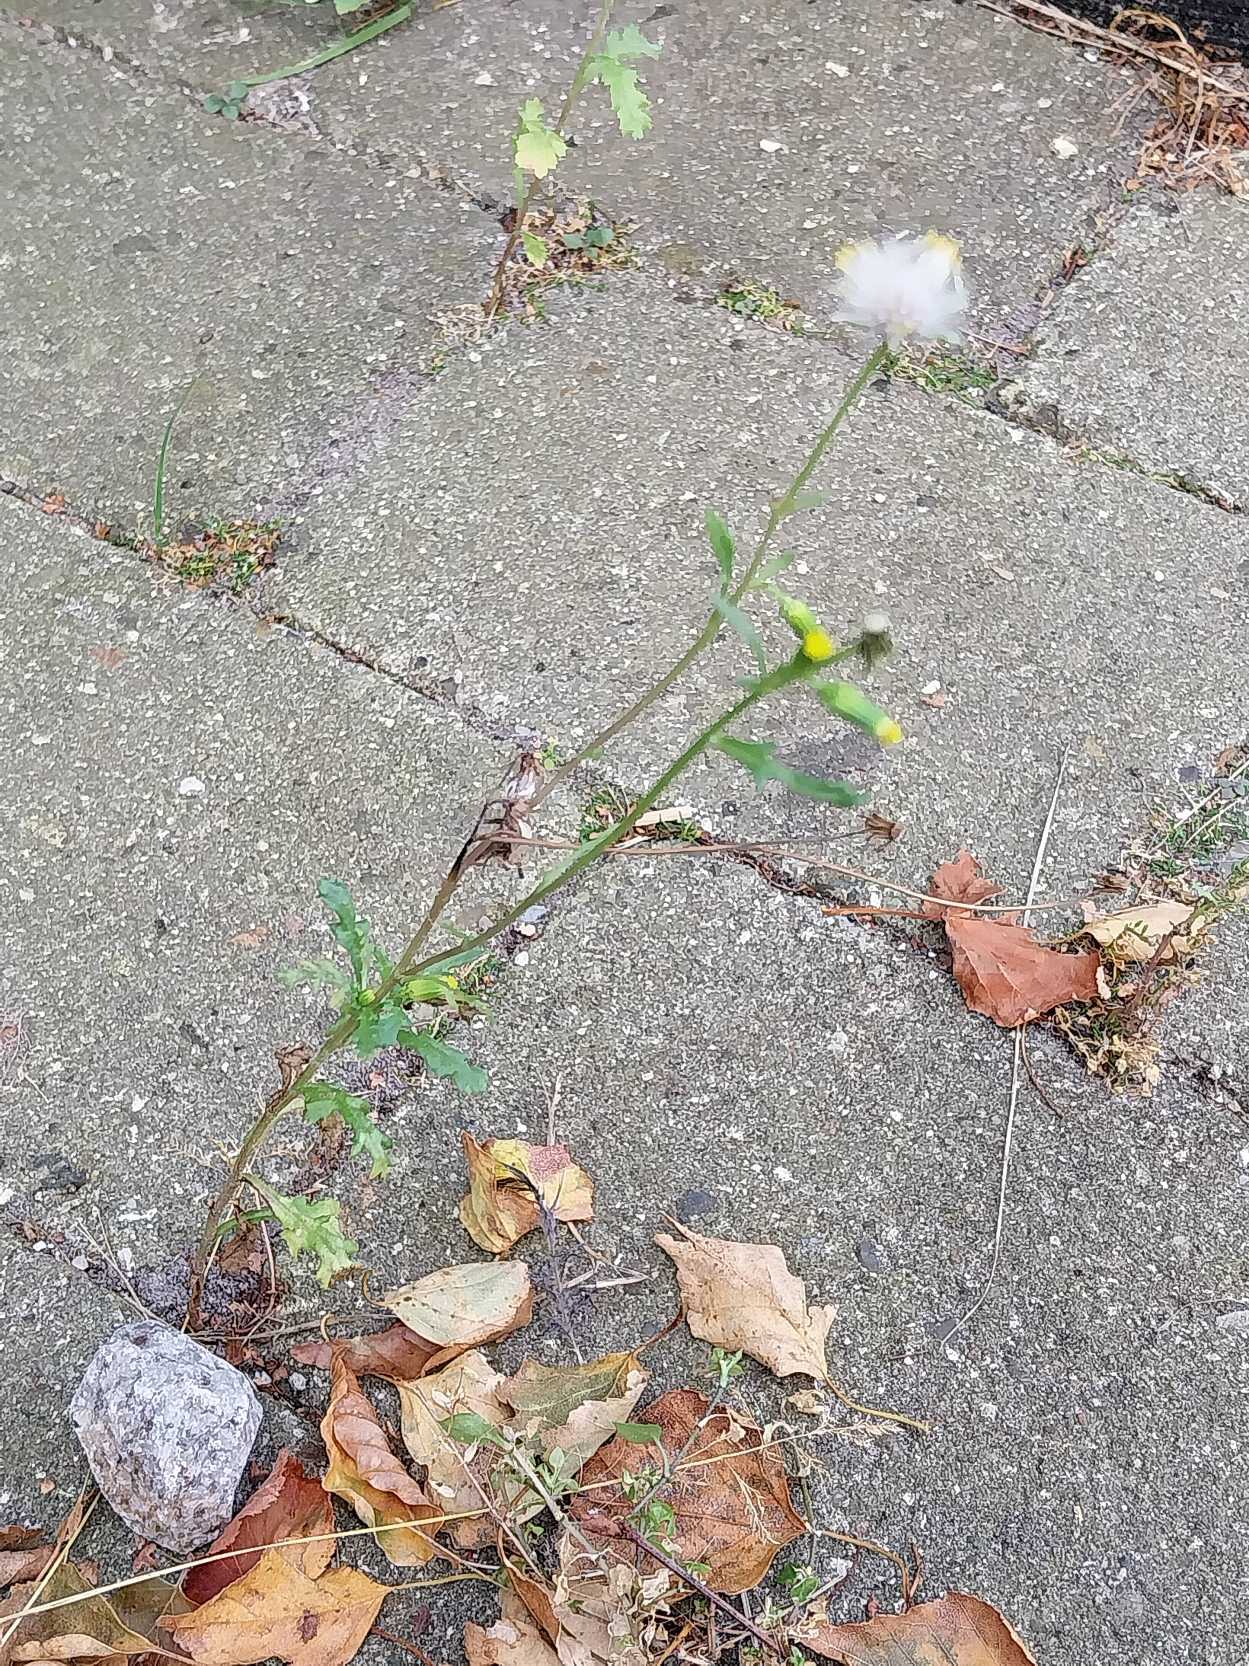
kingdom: Plantae
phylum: Tracheophyta
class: Magnoliopsida
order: Asterales
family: Asteraceae
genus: Senecio
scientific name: Senecio vulgaris
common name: Almindelig brandbæger
